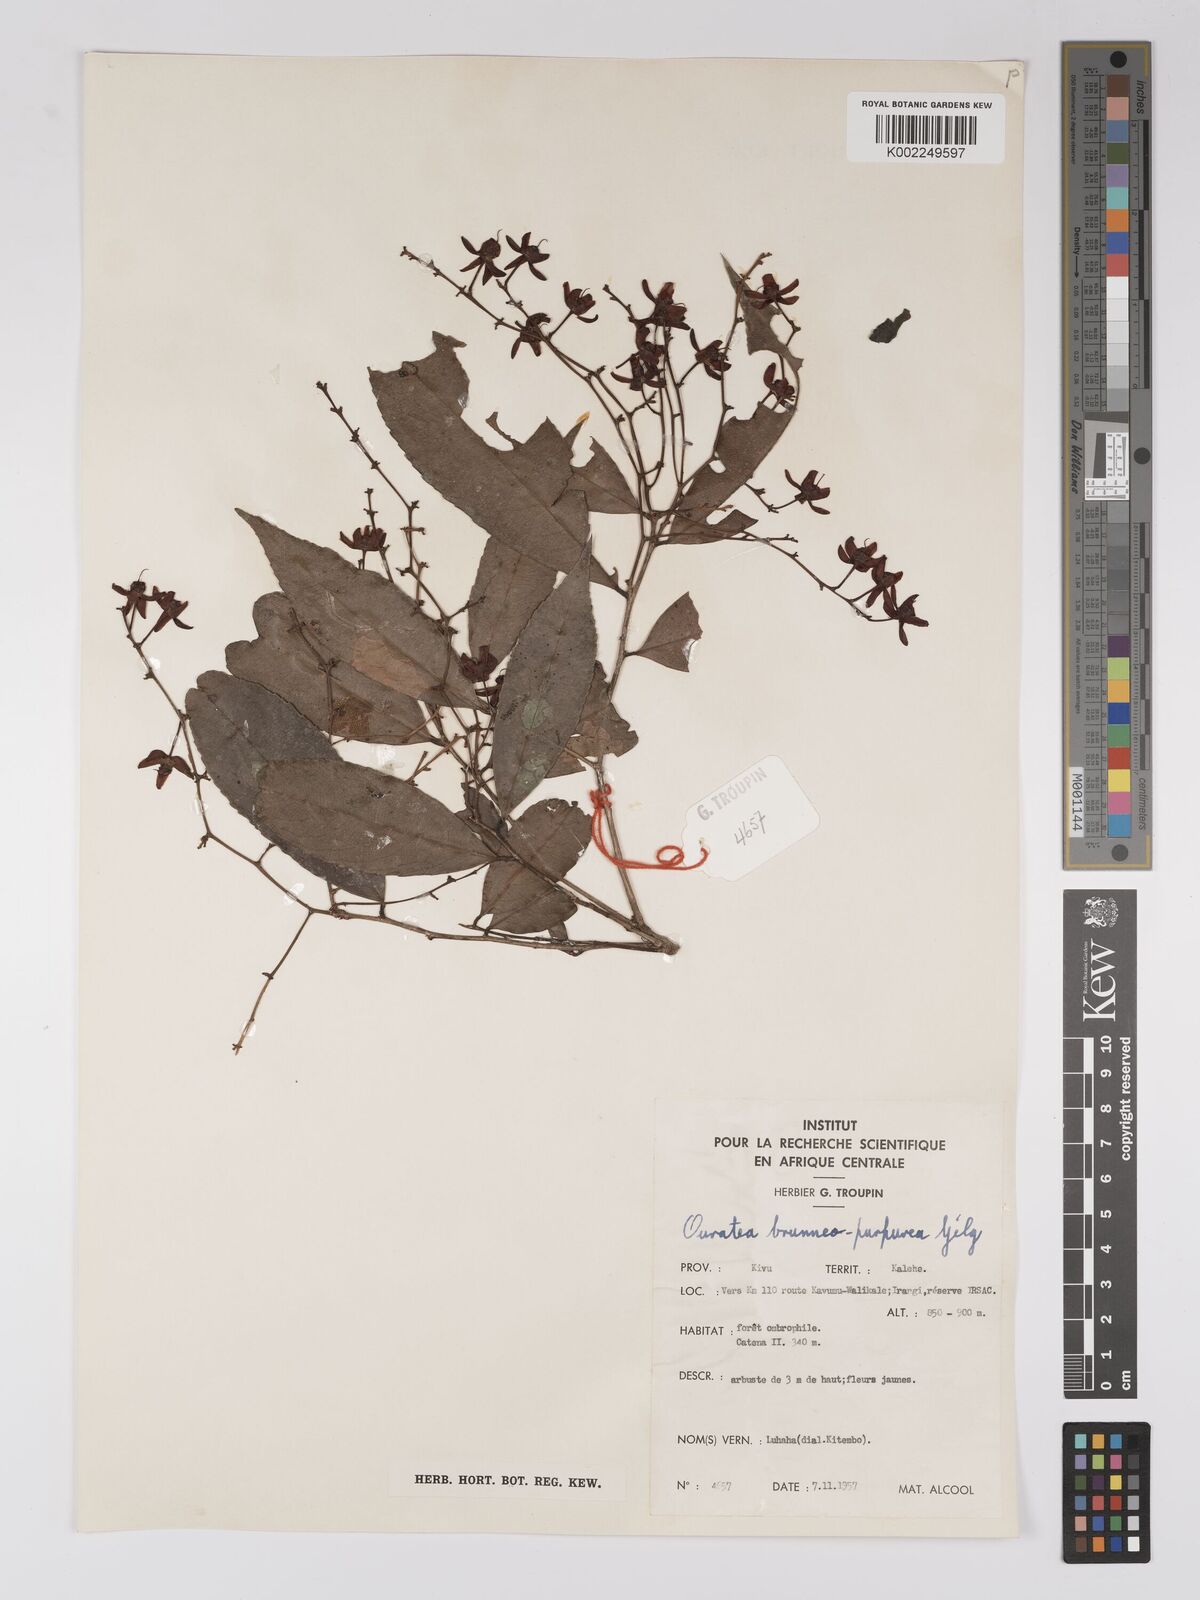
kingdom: Plantae
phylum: Tracheophyta
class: Magnoliopsida
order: Malpighiales
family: Ochnaceae
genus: Campylospermum
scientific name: Campylospermum reticulatum
